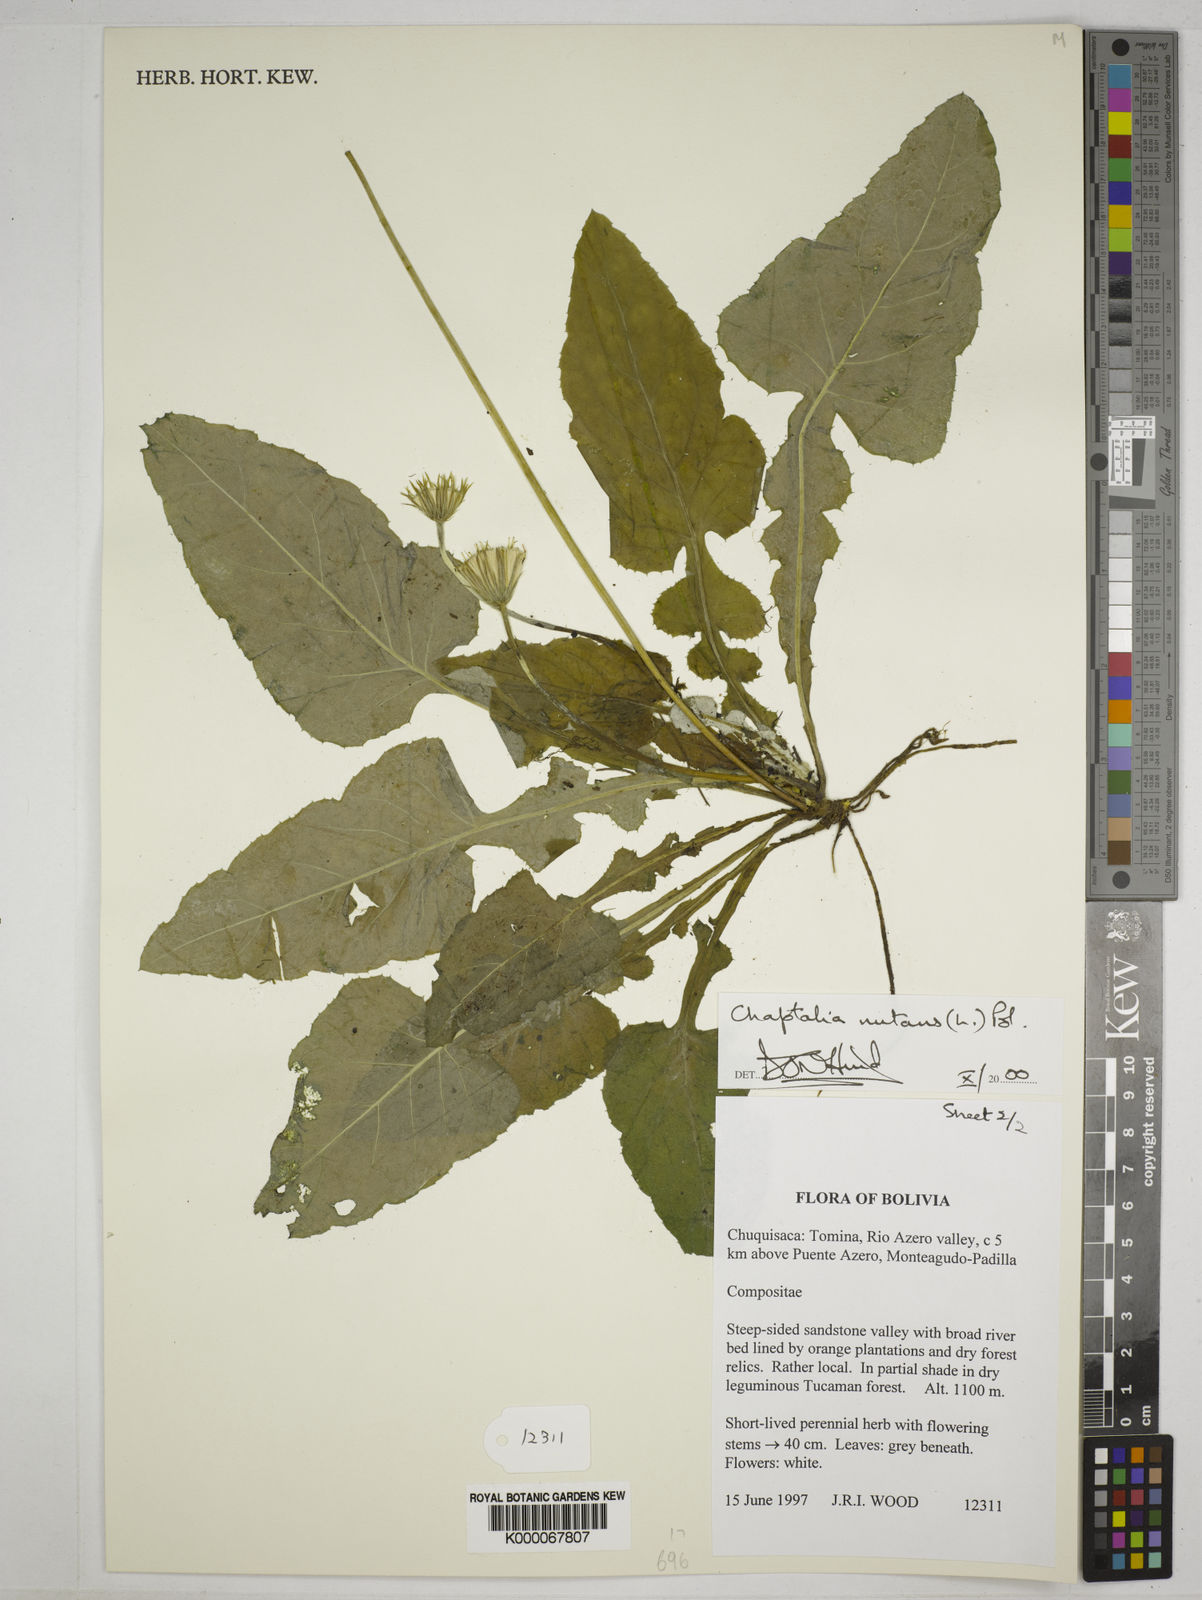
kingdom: Plantae
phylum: Tracheophyta
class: Magnoliopsida
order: Asterales
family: Asteraceae
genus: Chaptalia
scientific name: Chaptalia nutans
